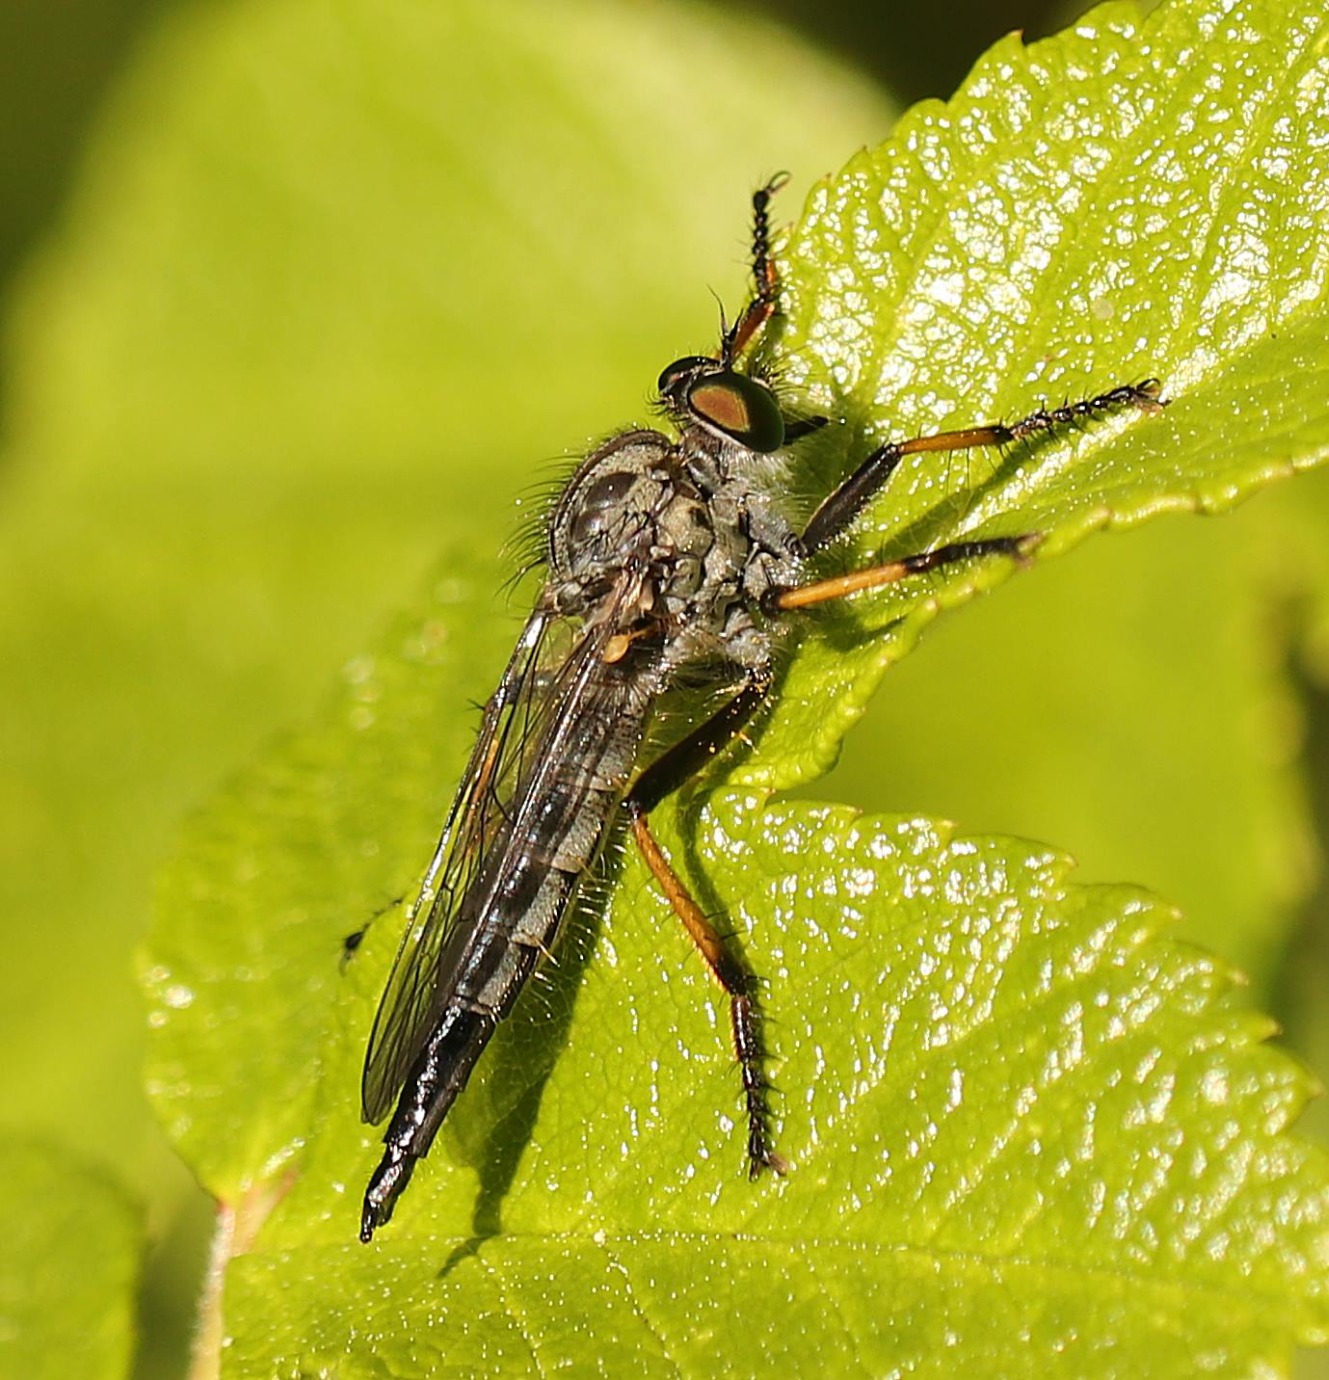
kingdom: Animalia
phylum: Arthropoda
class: Insecta
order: Diptera
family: Asilidae
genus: Neoitamus
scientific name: Neoitamus cyanurus
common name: Sortfodet skovrovflue
